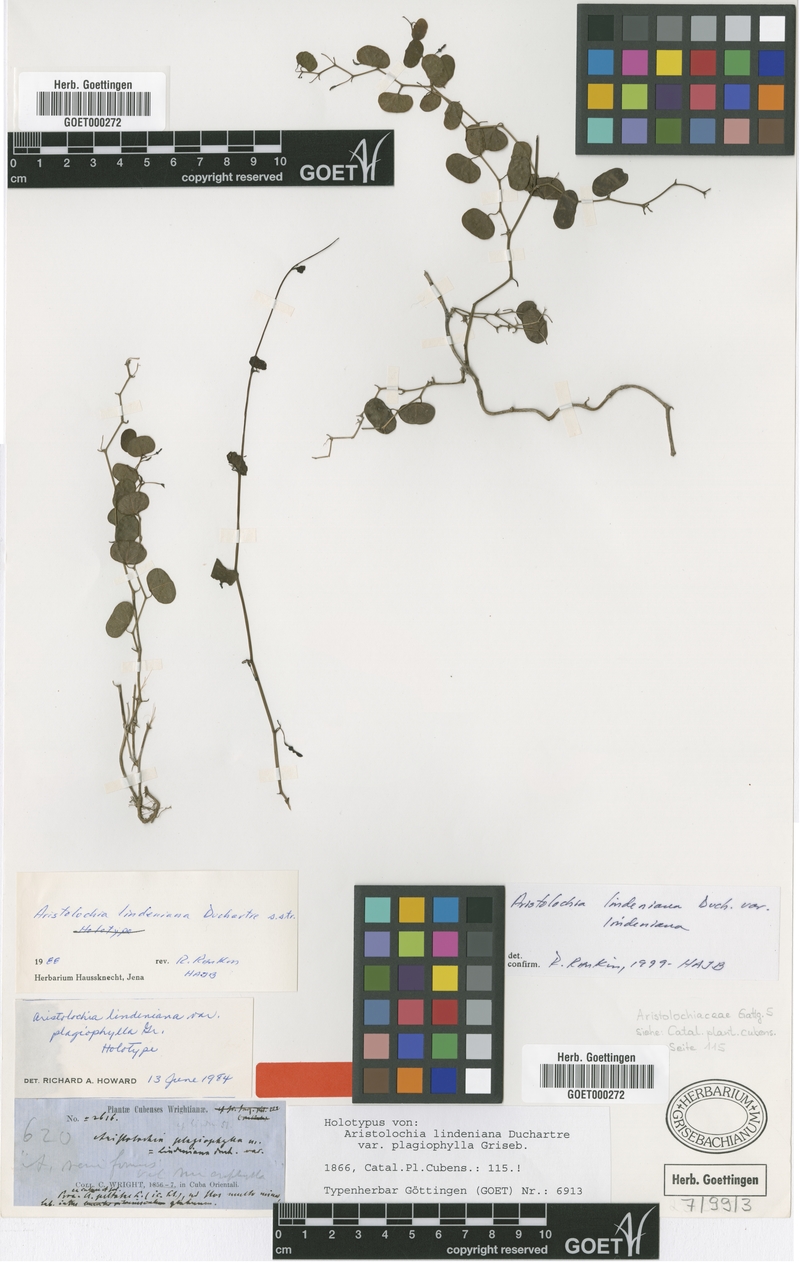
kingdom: Plantae
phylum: Tracheophyta
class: Magnoliopsida
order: Piperales
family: Aristolochiaceae
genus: Aristolochia
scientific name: Aristolochia lindeniana
